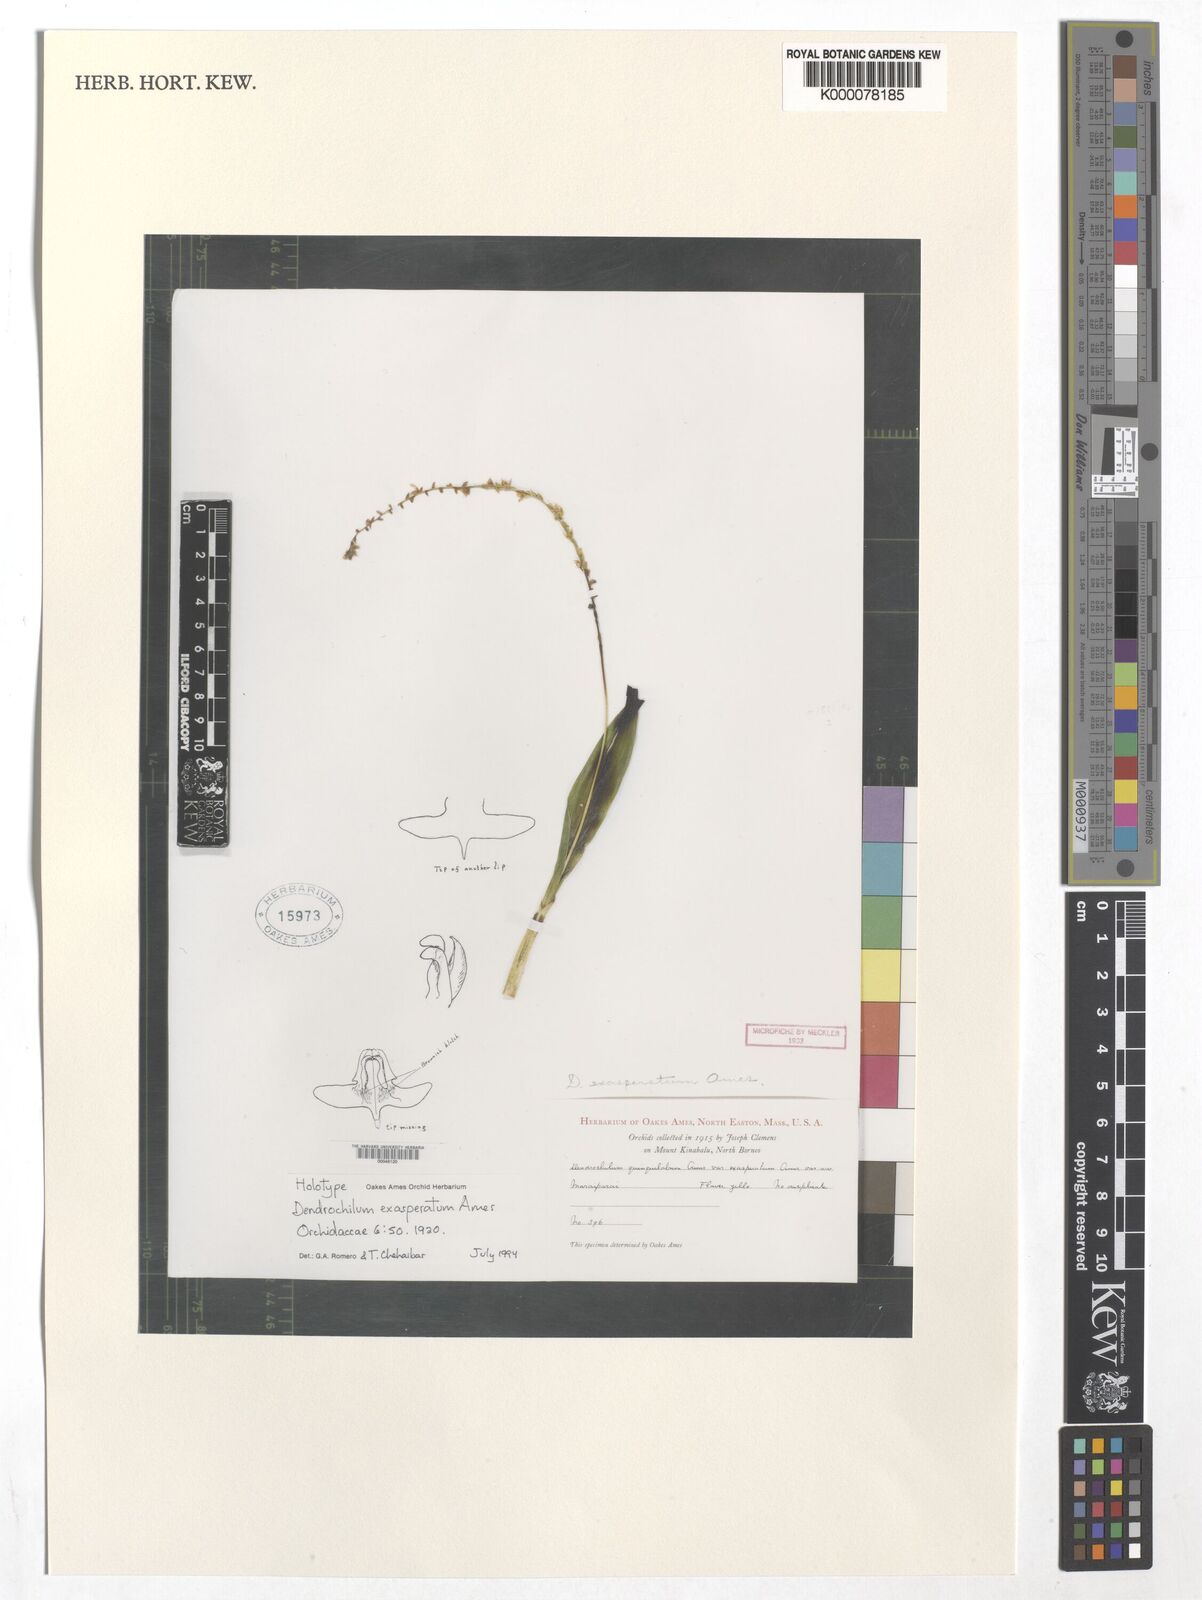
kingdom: Plantae
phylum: Tracheophyta
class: Liliopsida
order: Asparagales
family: Orchidaceae
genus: Coelogyne
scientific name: Coelogyne exasperata
